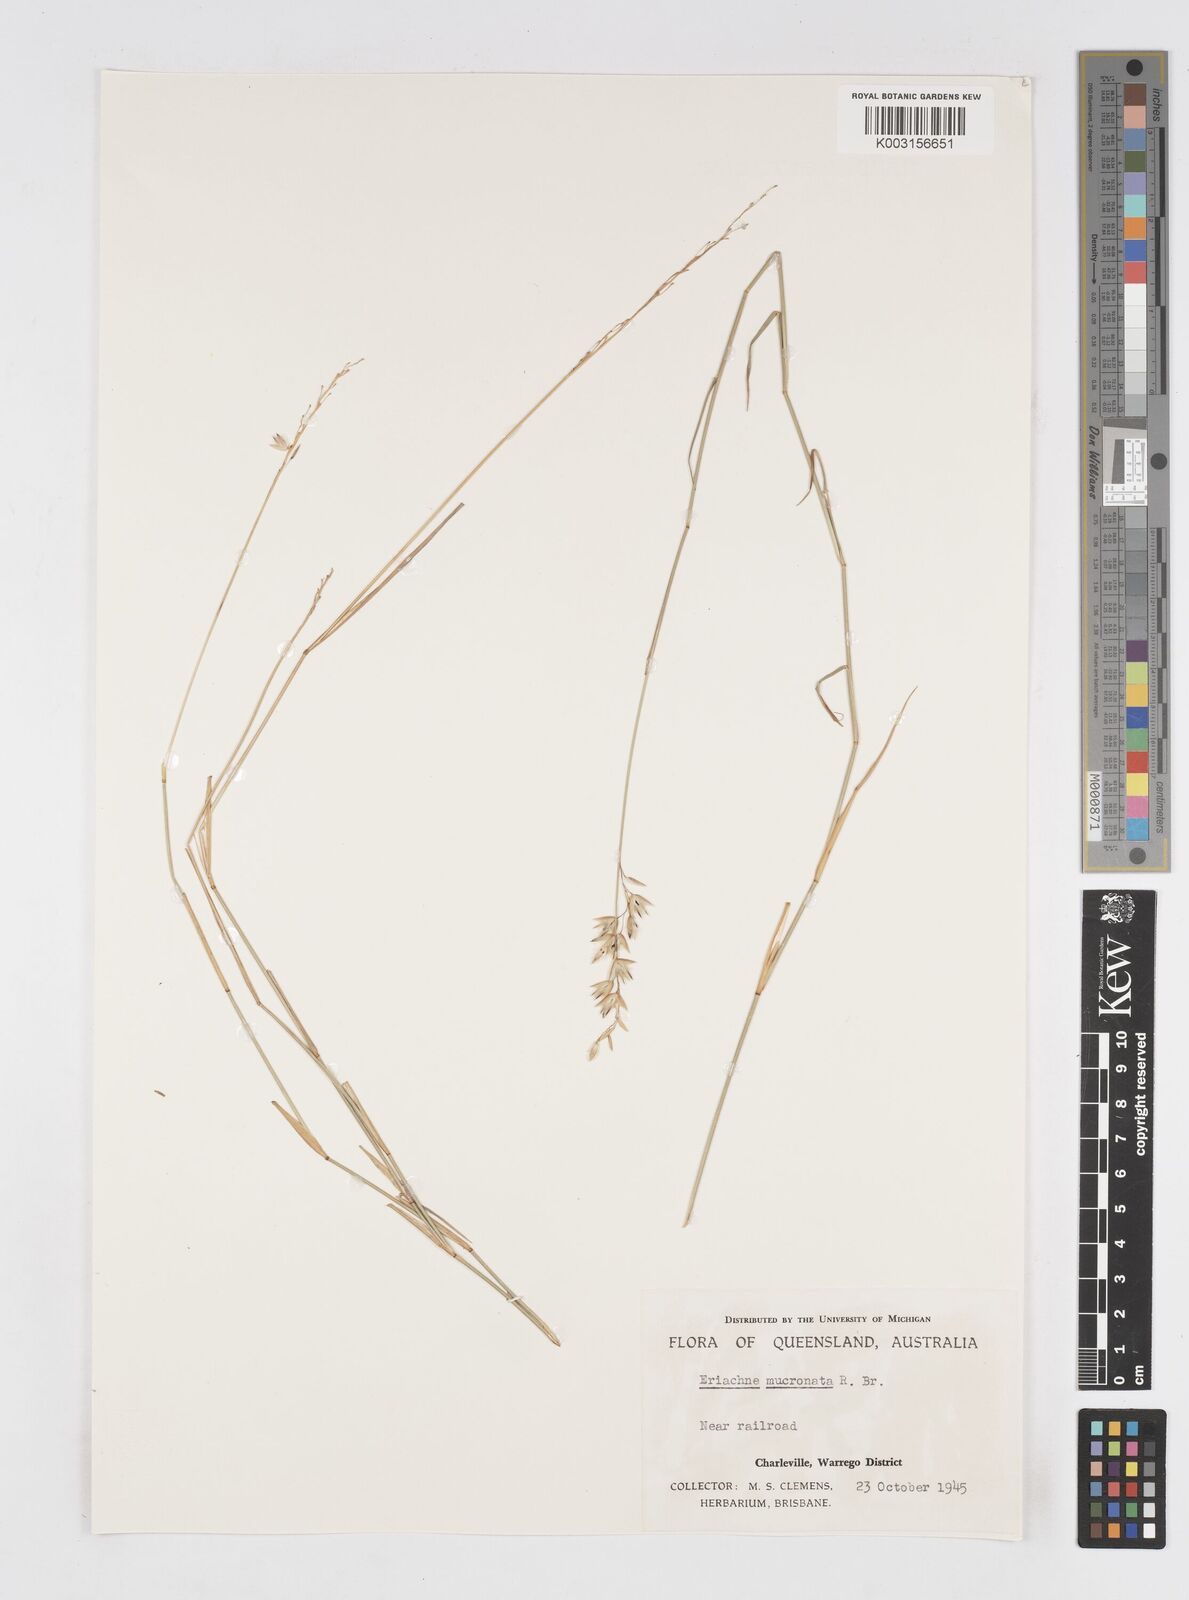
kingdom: Plantae
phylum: Tracheophyta
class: Liliopsida
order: Poales
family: Poaceae
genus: Eriachne
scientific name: Eriachne helmsii
